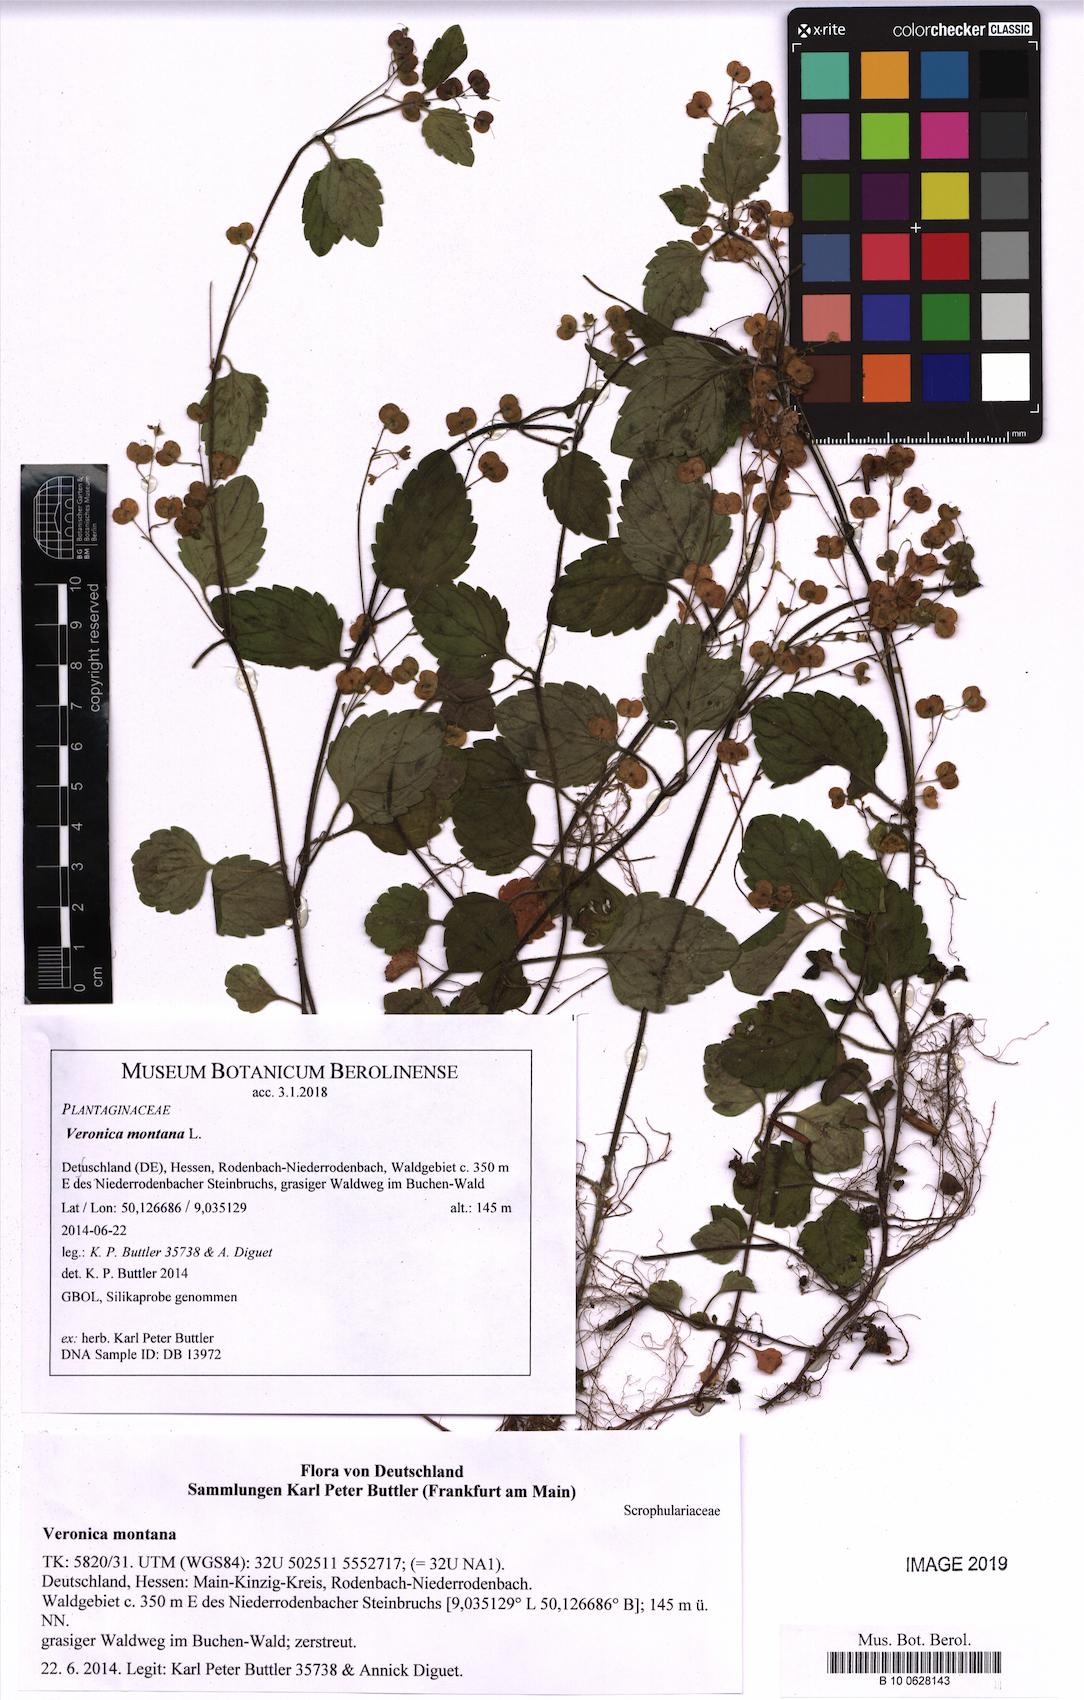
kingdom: Plantae
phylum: Tracheophyta
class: Magnoliopsida
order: Lamiales
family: Plantaginaceae
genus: Veronica
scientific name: Veronica montana
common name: Wood speedwell
